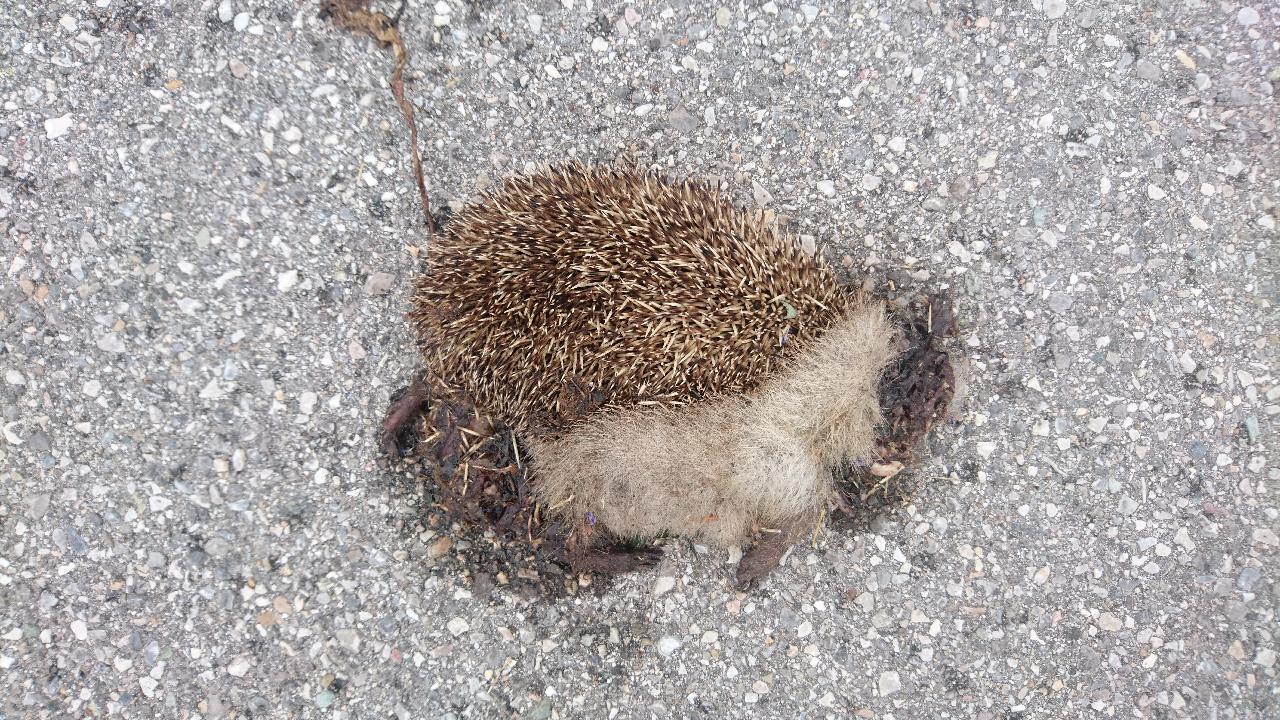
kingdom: Animalia
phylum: Chordata
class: Mammalia
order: Erinaceomorpha
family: Erinaceidae
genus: Erinaceus
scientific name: Erinaceus
